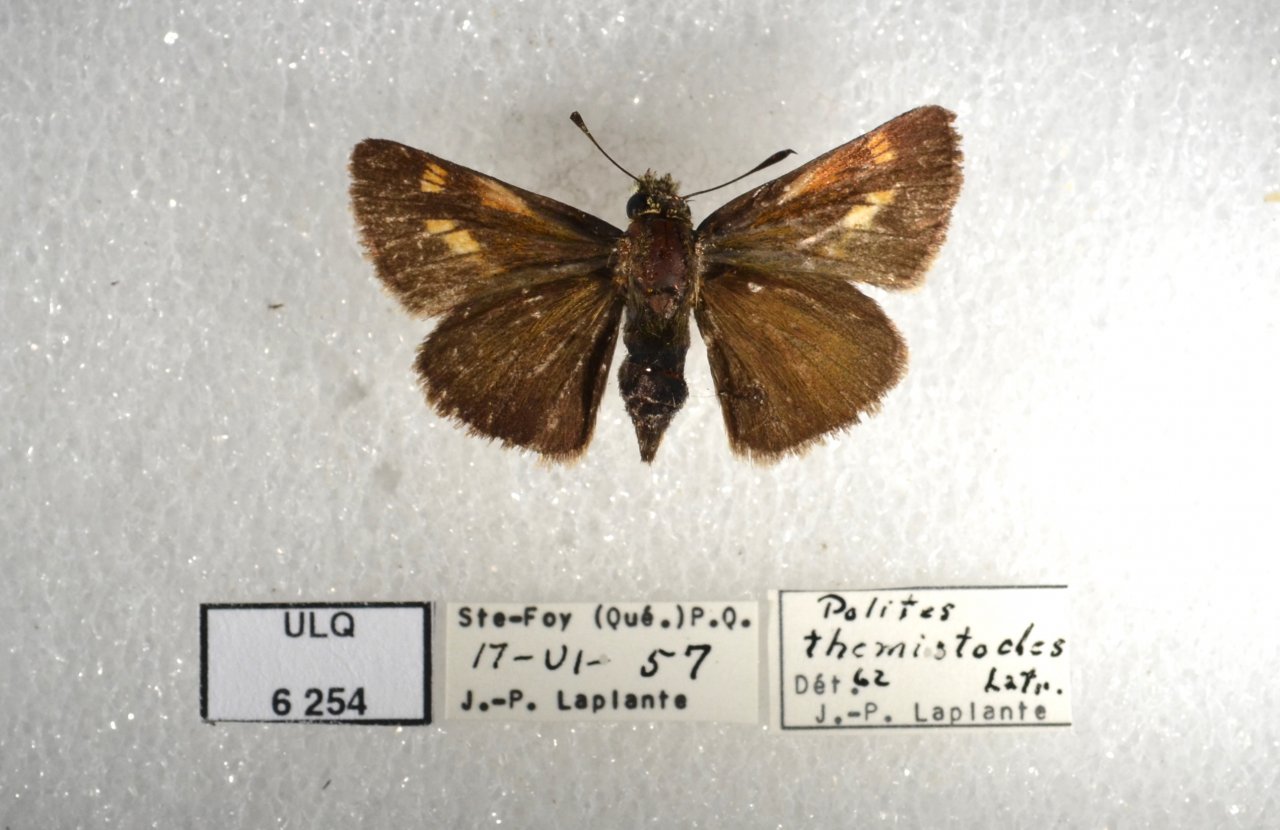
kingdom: Animalia
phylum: Arthropoda
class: Insecta
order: Lepidoptera
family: Hesperiidae
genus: Polites
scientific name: Polites themistocles
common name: Tawny-edged Skipper
